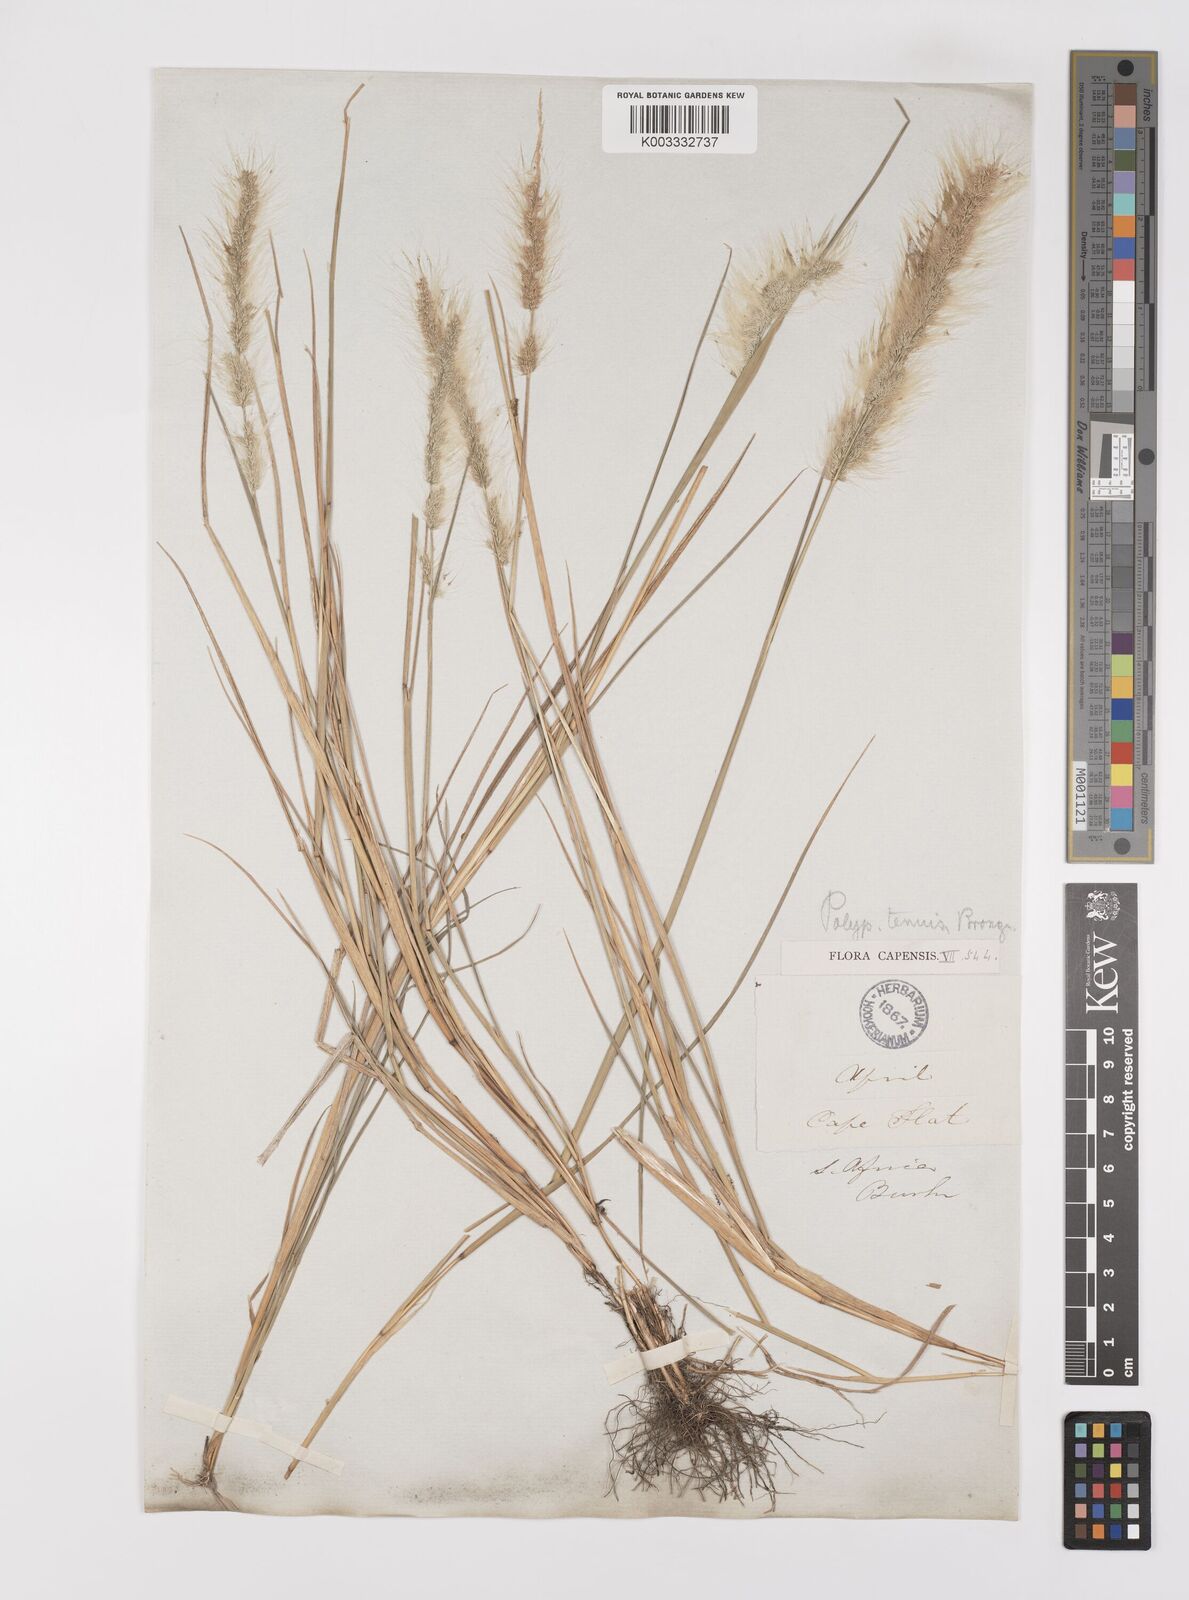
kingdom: Plantae
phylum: Tracheophyta
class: Liliopsida
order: Poales
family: Poaceae
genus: Polypogon
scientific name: Polypogon tenuis
